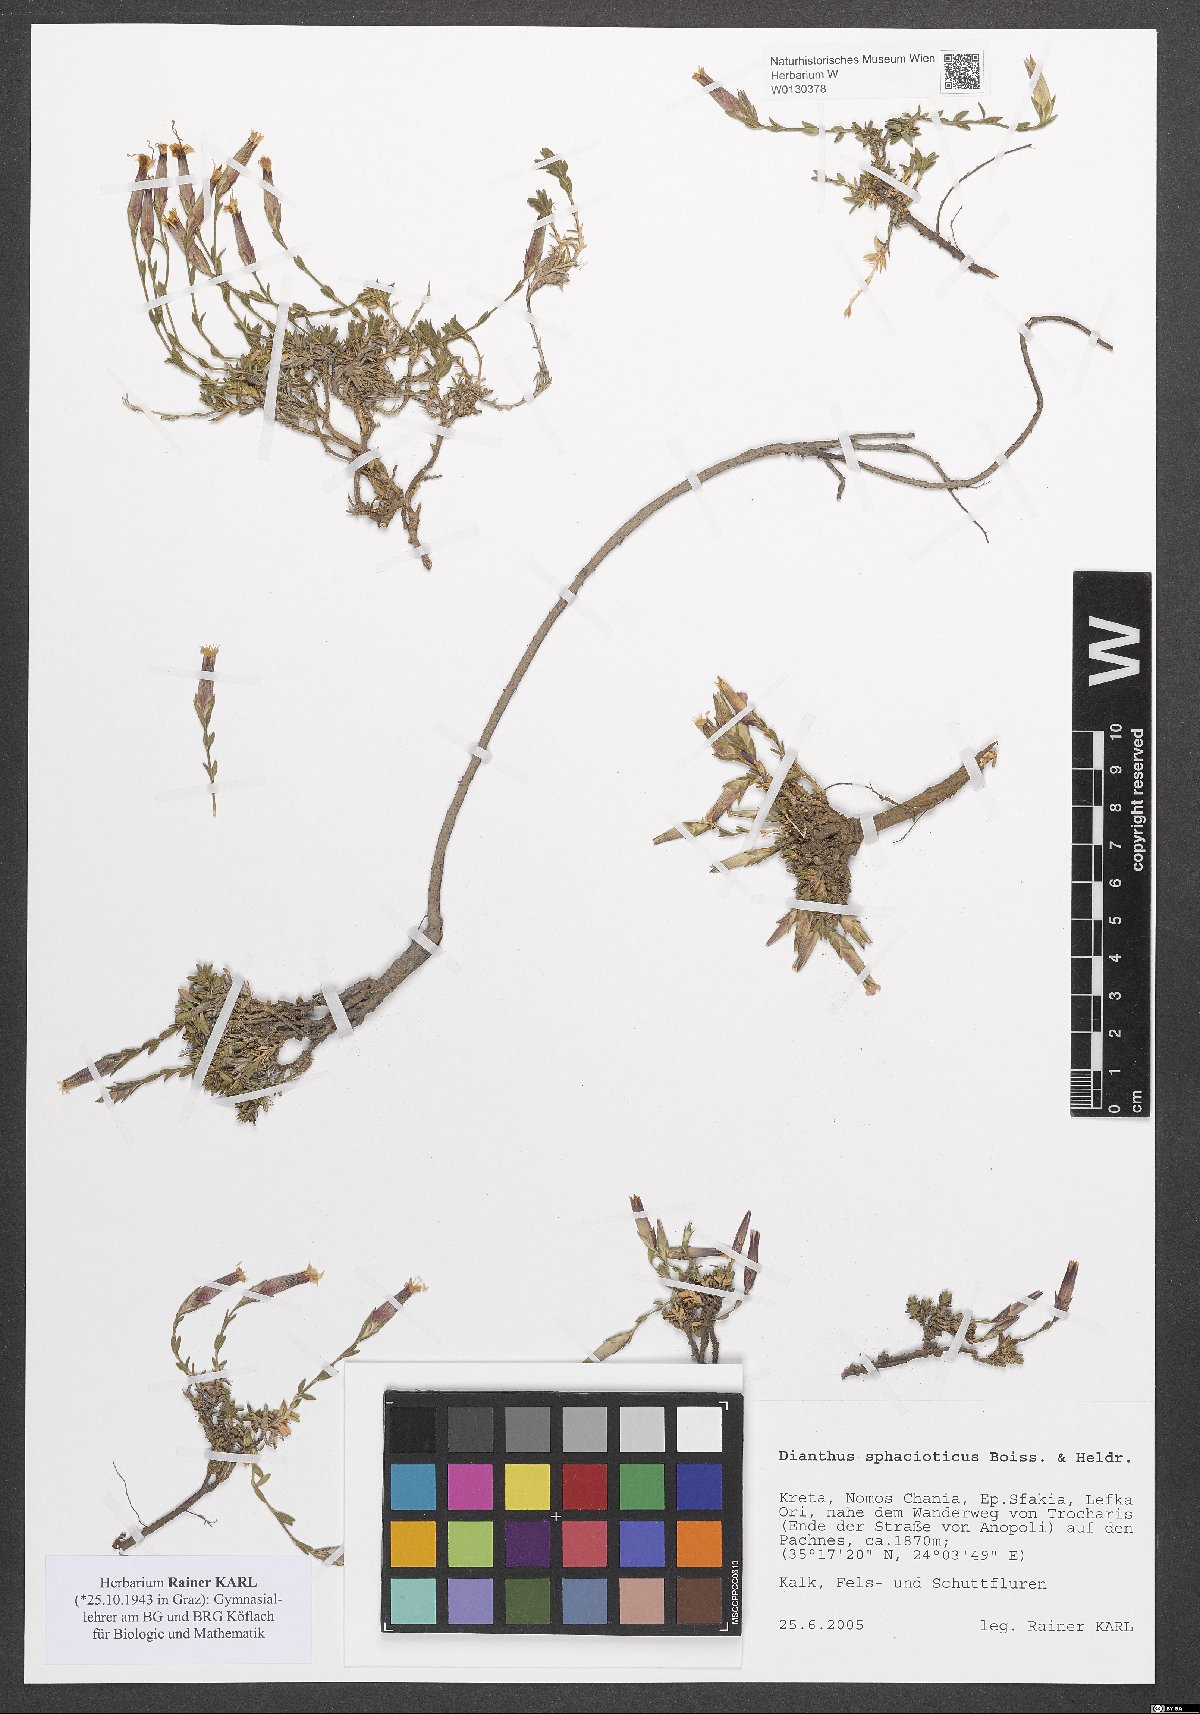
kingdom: Plantae
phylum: Tracheophyta
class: Magnoliopsida
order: Caryophyllales
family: Caryophyllaceae
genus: Dianthus
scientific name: Dianthus sphacioticus
